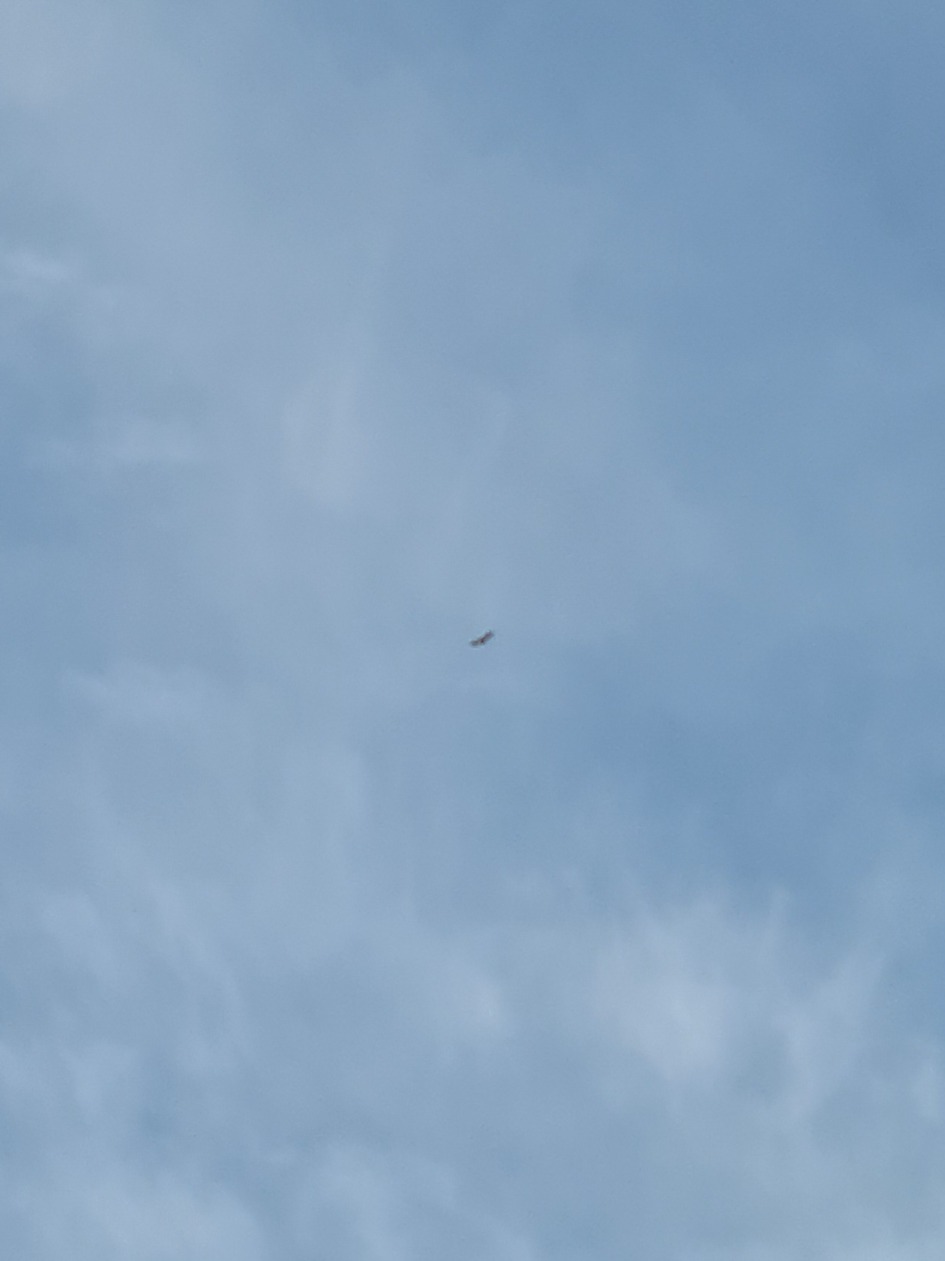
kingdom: Animalia
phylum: Chordata
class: Aves
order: Accipitriformes
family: Accipitridae
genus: Haliaeetus
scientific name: Haliaeetus albicilla
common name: Havørn
